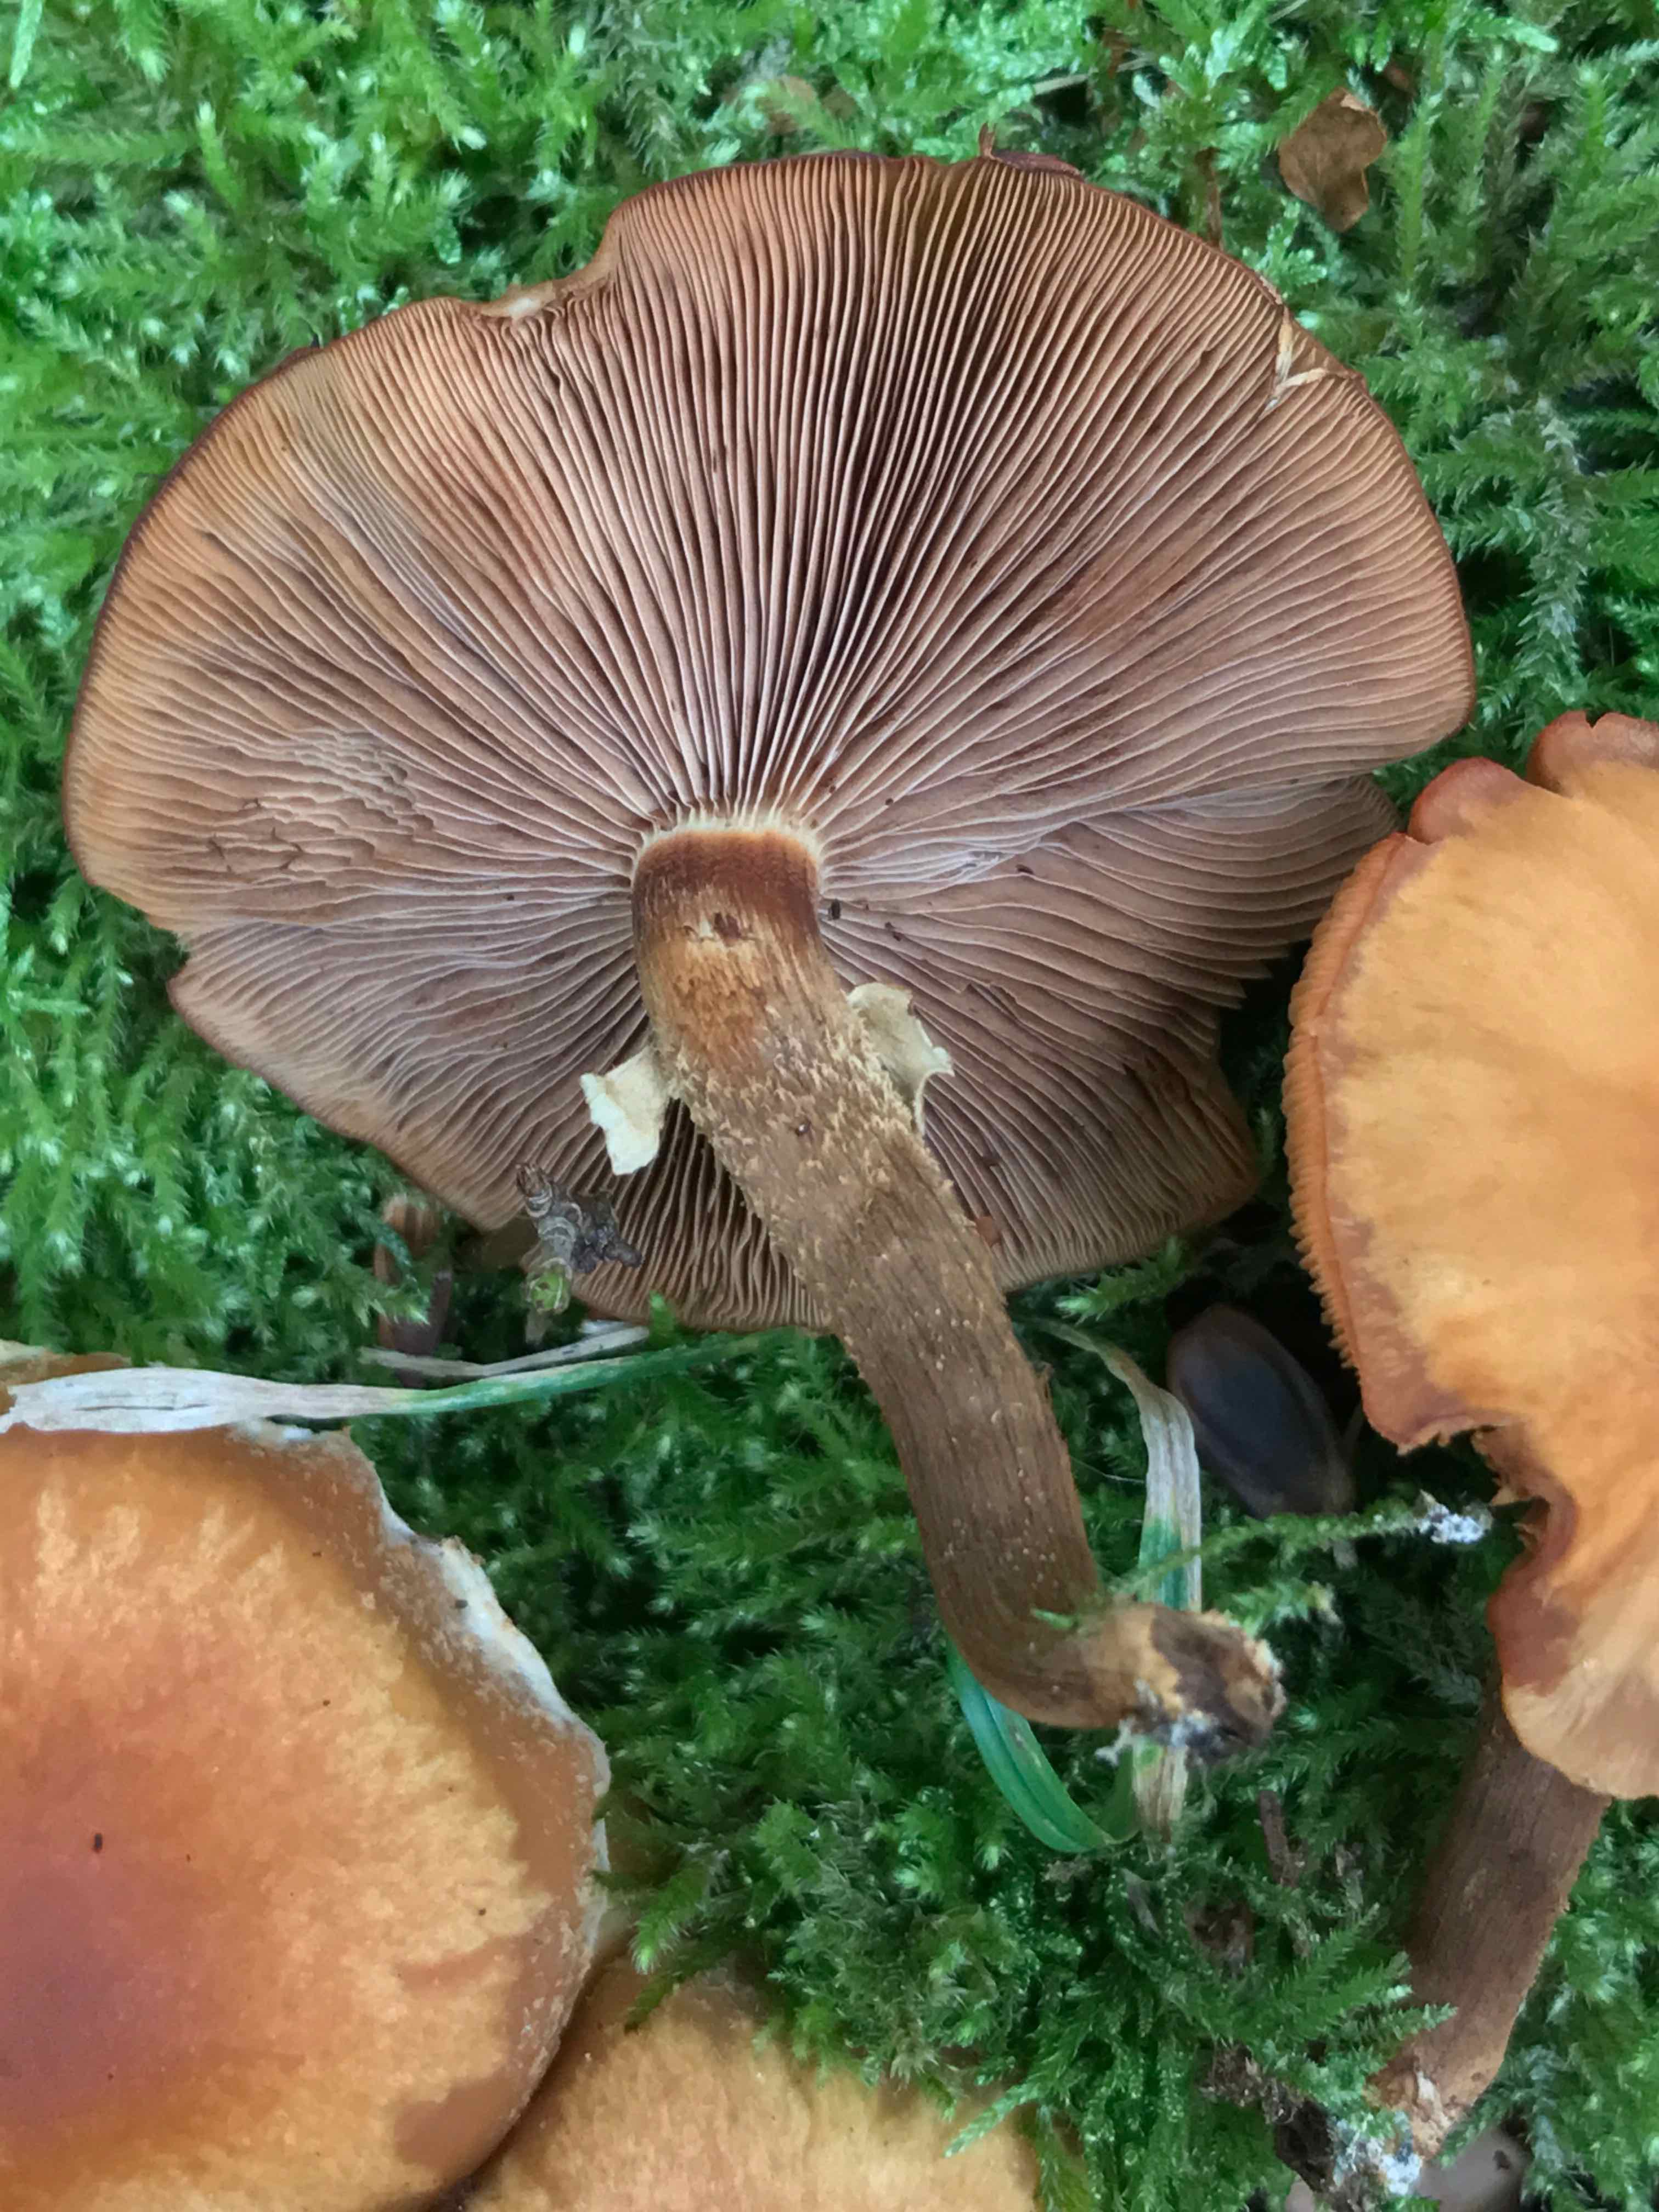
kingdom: Fungi
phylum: Basidiomycota
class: Agaricomycetes
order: Agaricales
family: Strophariaceae
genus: Kuehneromyces
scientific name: Kuehneromyces mutabilis
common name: foranderlig skælhat
